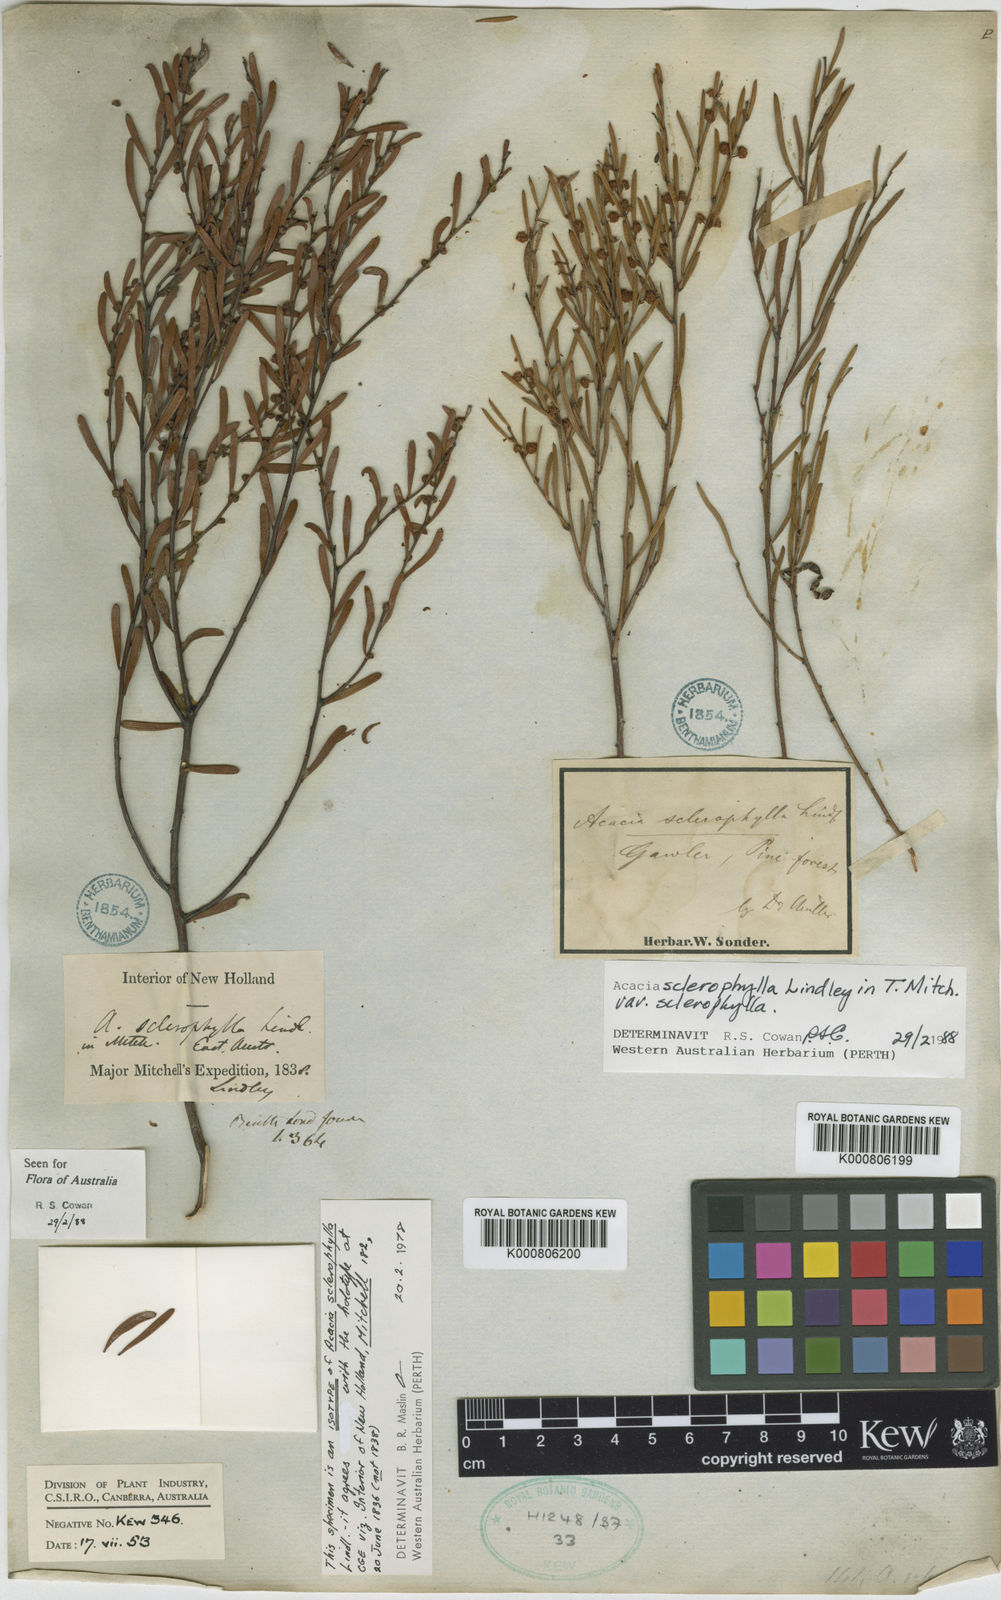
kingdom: Plantae
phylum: Tracheophyta
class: Magnoliopsida
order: Fabales
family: Fabaceae
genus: Acacia
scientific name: Acacia sclerophylla
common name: Hard-leaf wattle
